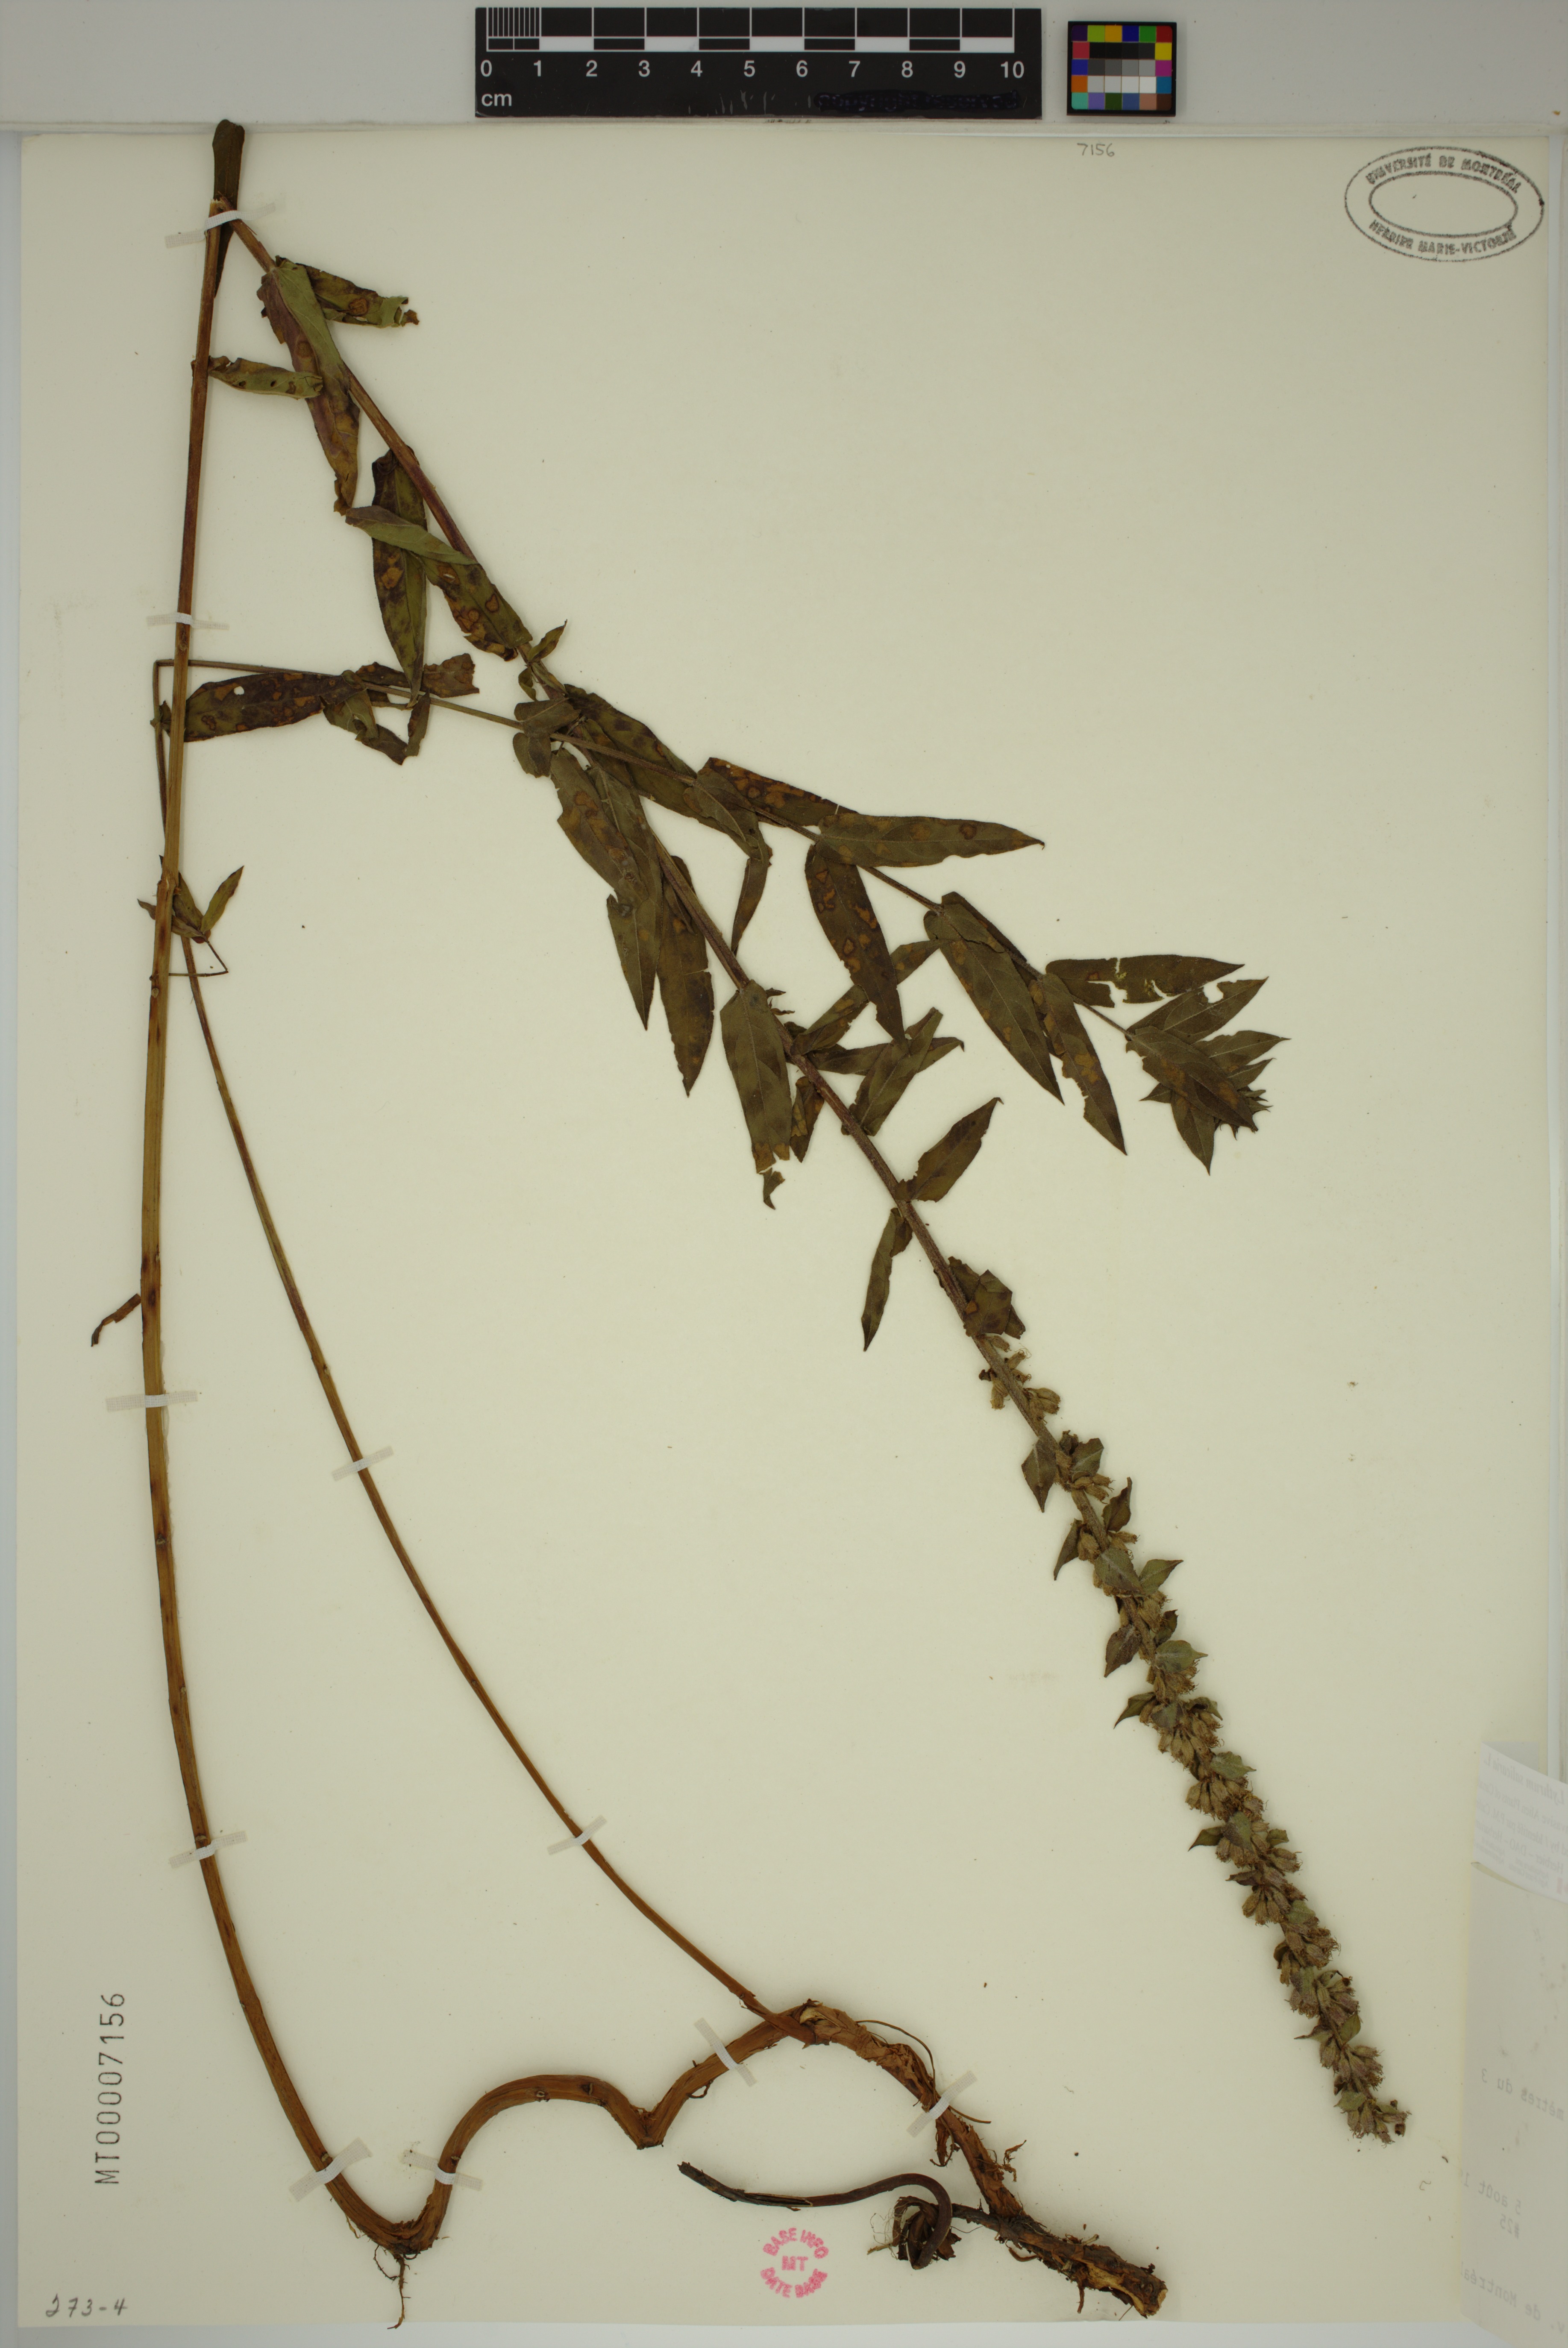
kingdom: Plantae
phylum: Tracheophyta
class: Magnoliopsida
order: Myrtales
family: Lythraceae
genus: Lythrum
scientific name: Lythrum salicaria
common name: Purple loosestrife
